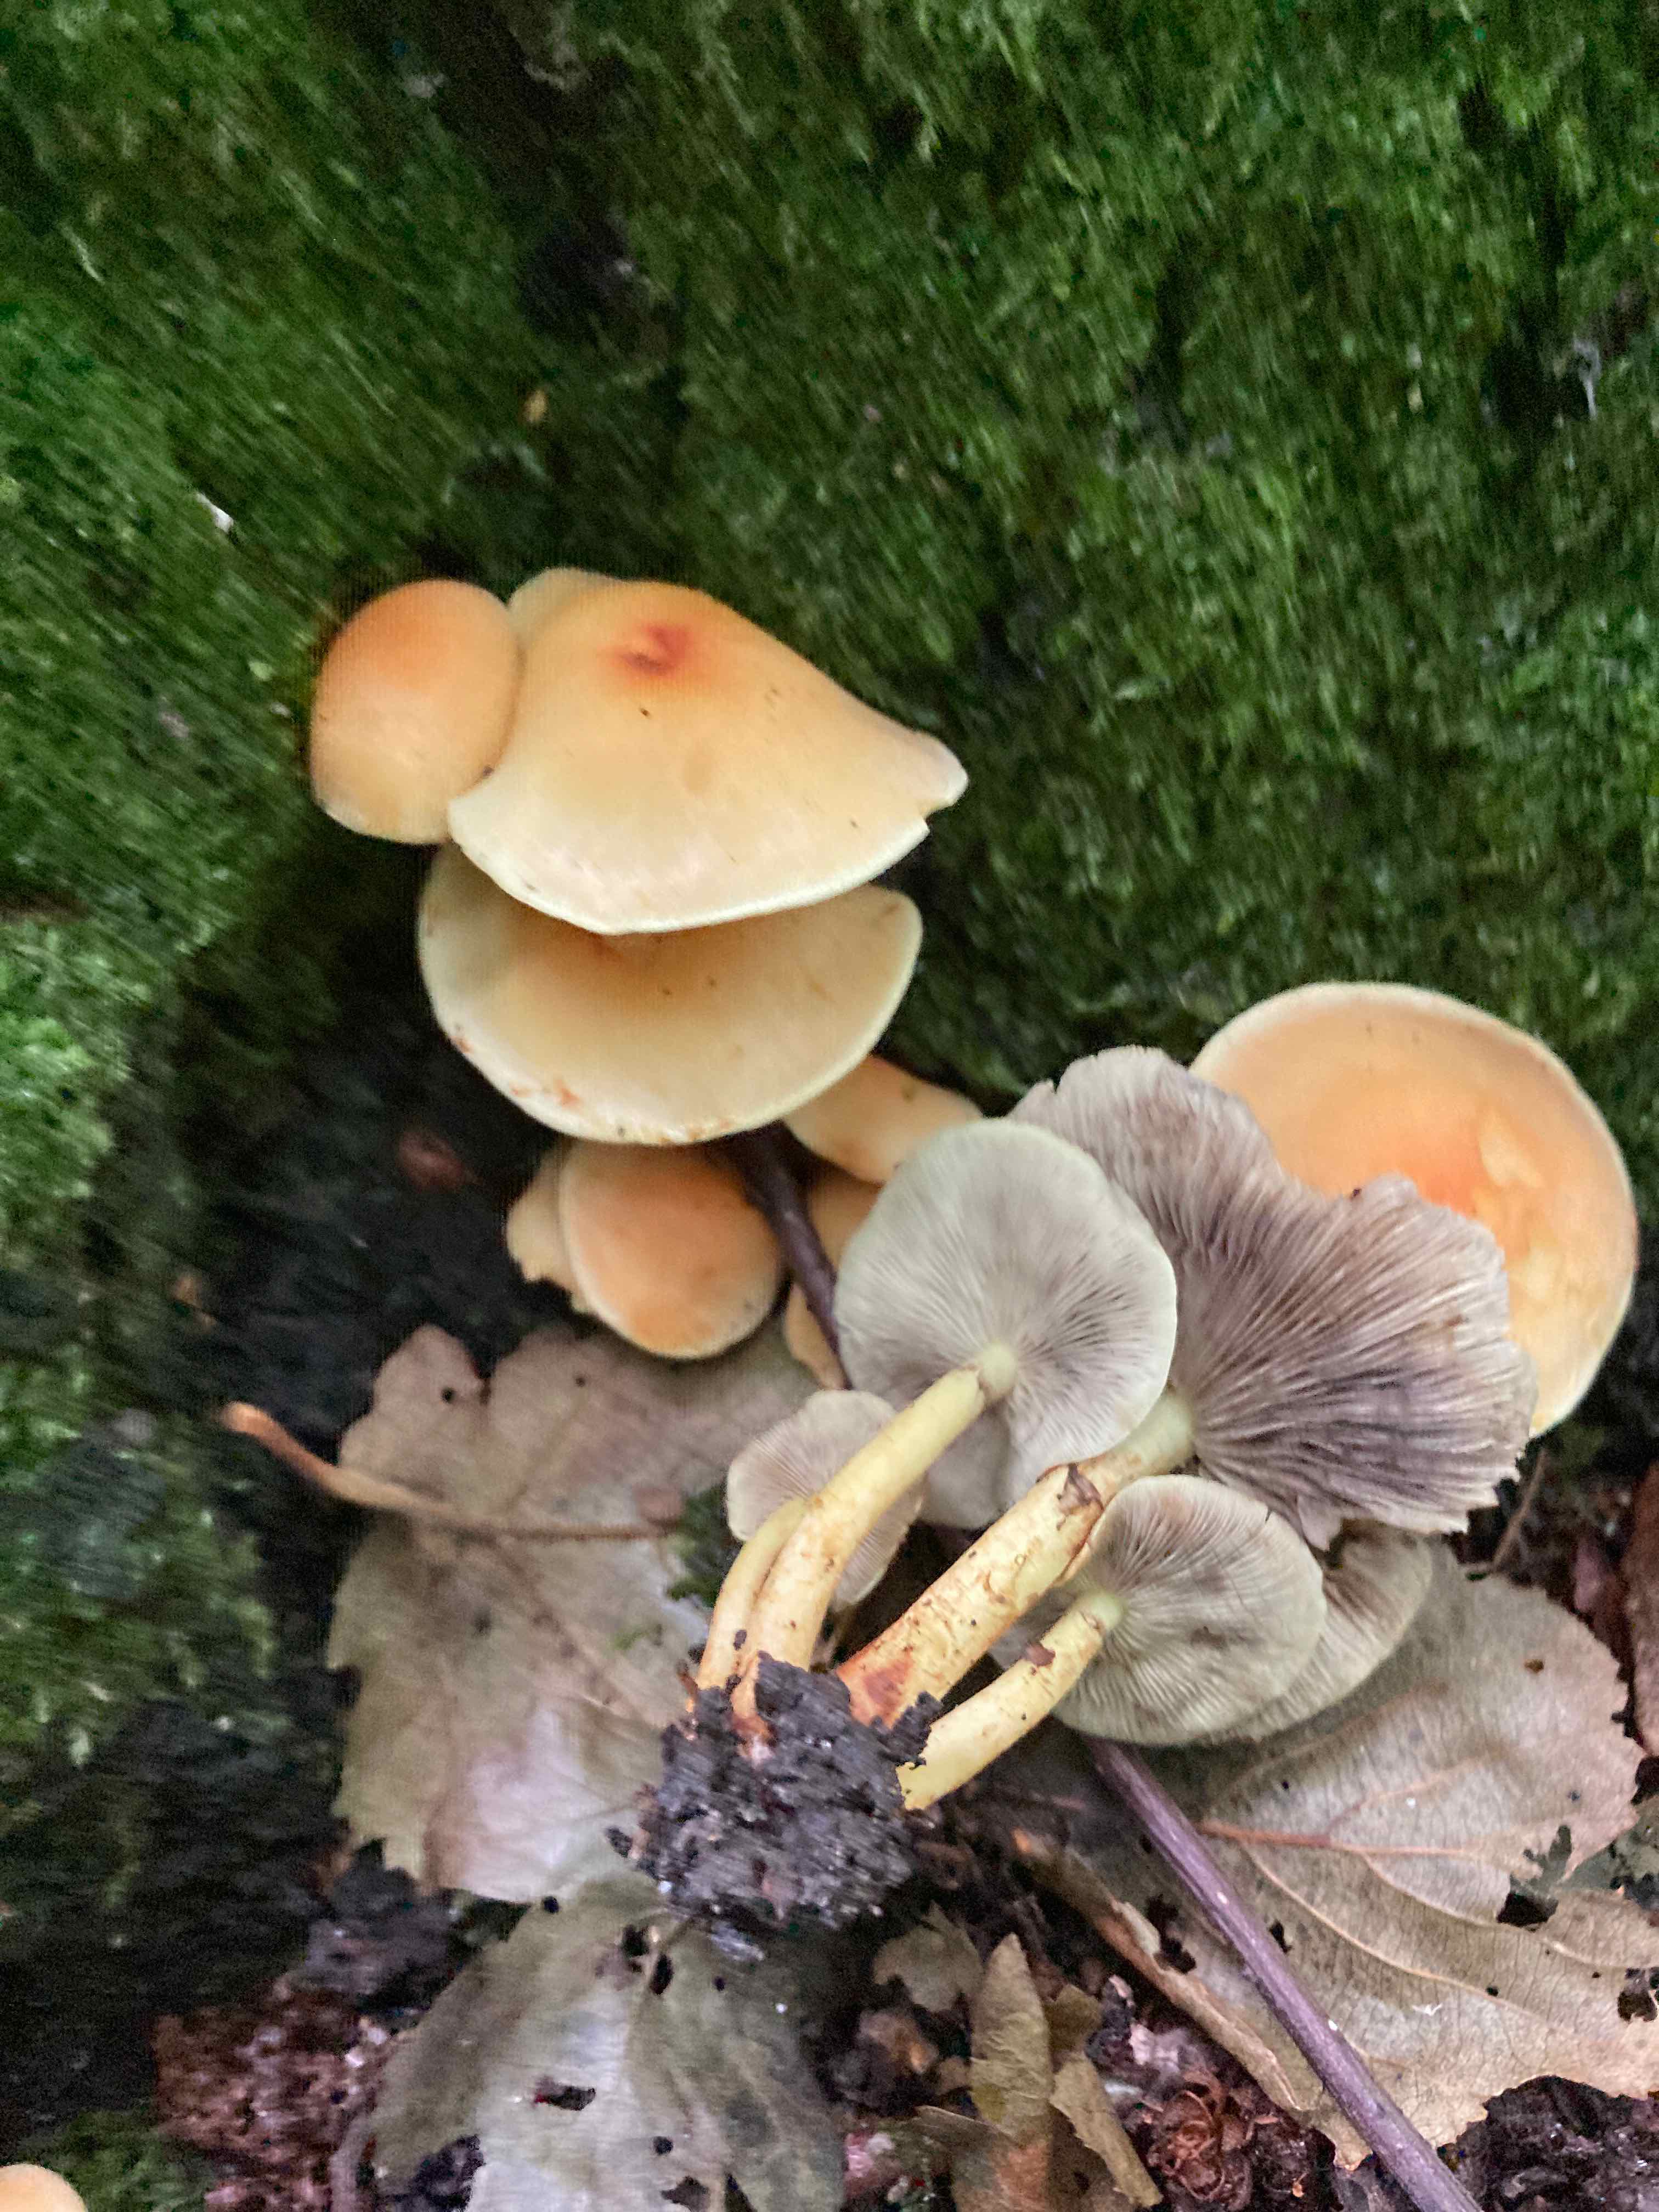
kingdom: Fungi
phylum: Basidiomycota
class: Agaricomycetes
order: Agaricales
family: Strophariaceae
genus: Hypholoma
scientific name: Hypholoma fasciculare
